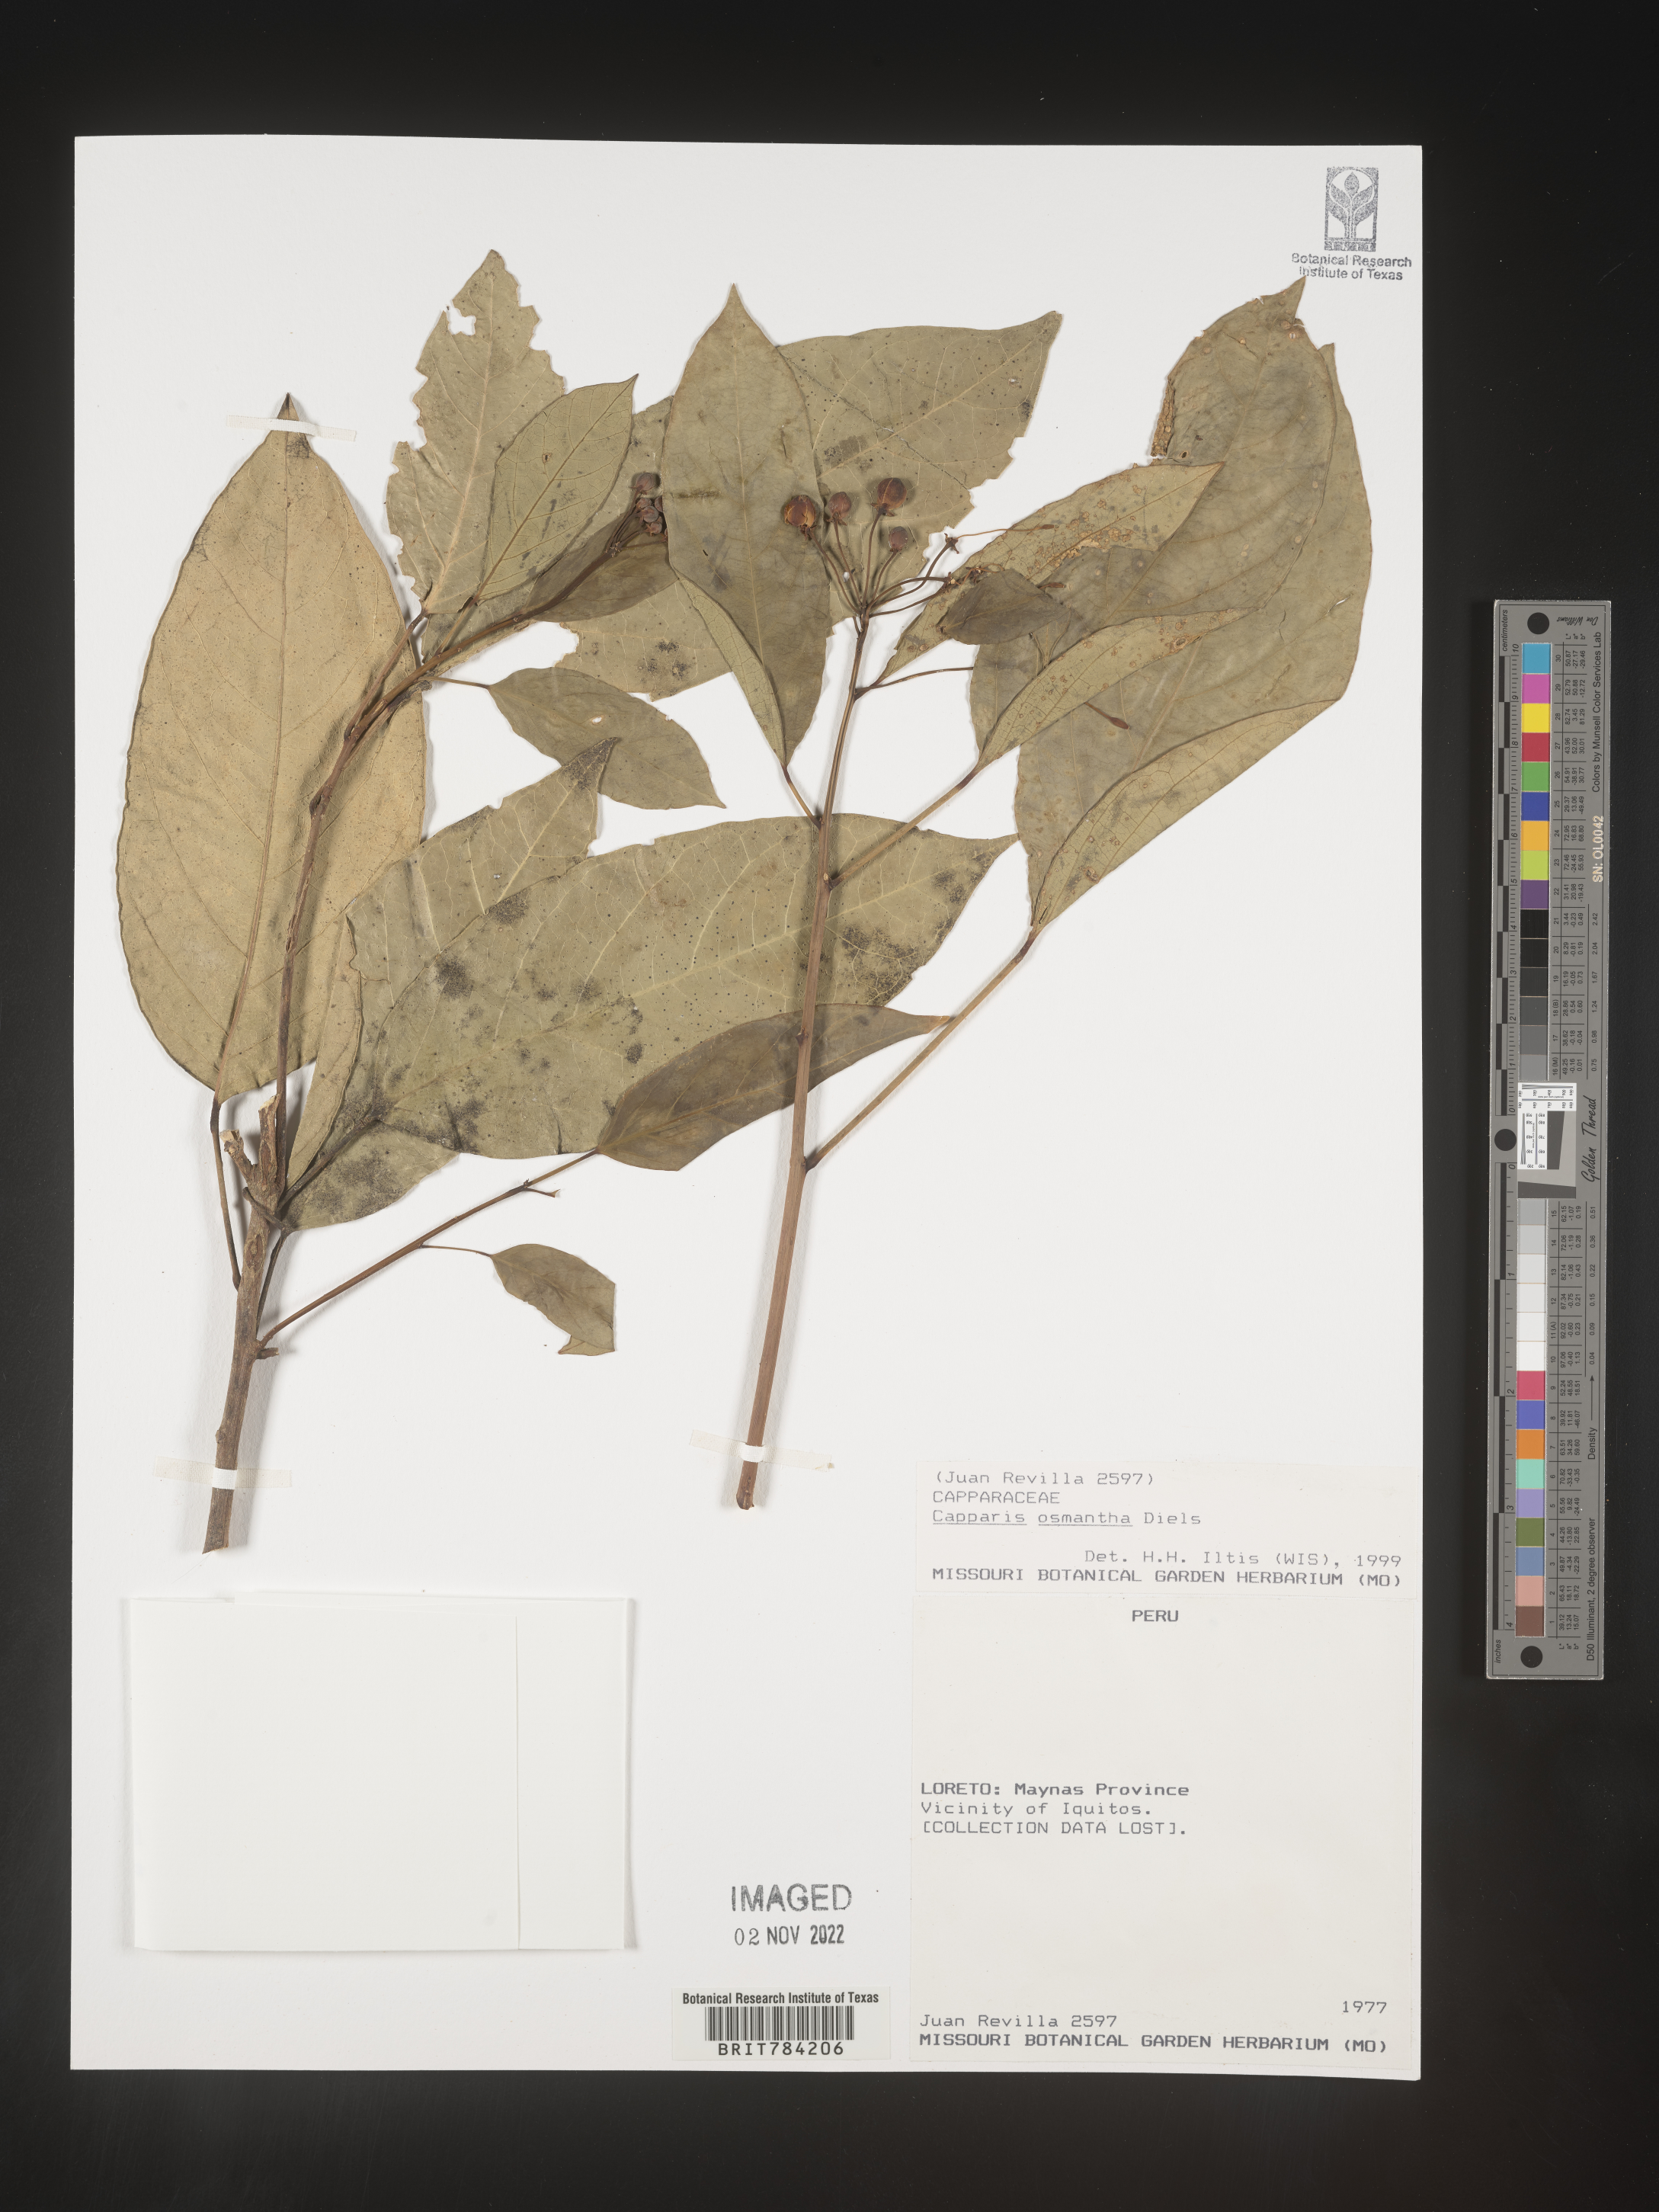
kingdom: Plantae
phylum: Tracheophyta
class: Magnoliopsida
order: Brassicales
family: Capparaceae
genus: Capparis
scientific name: Capparis
